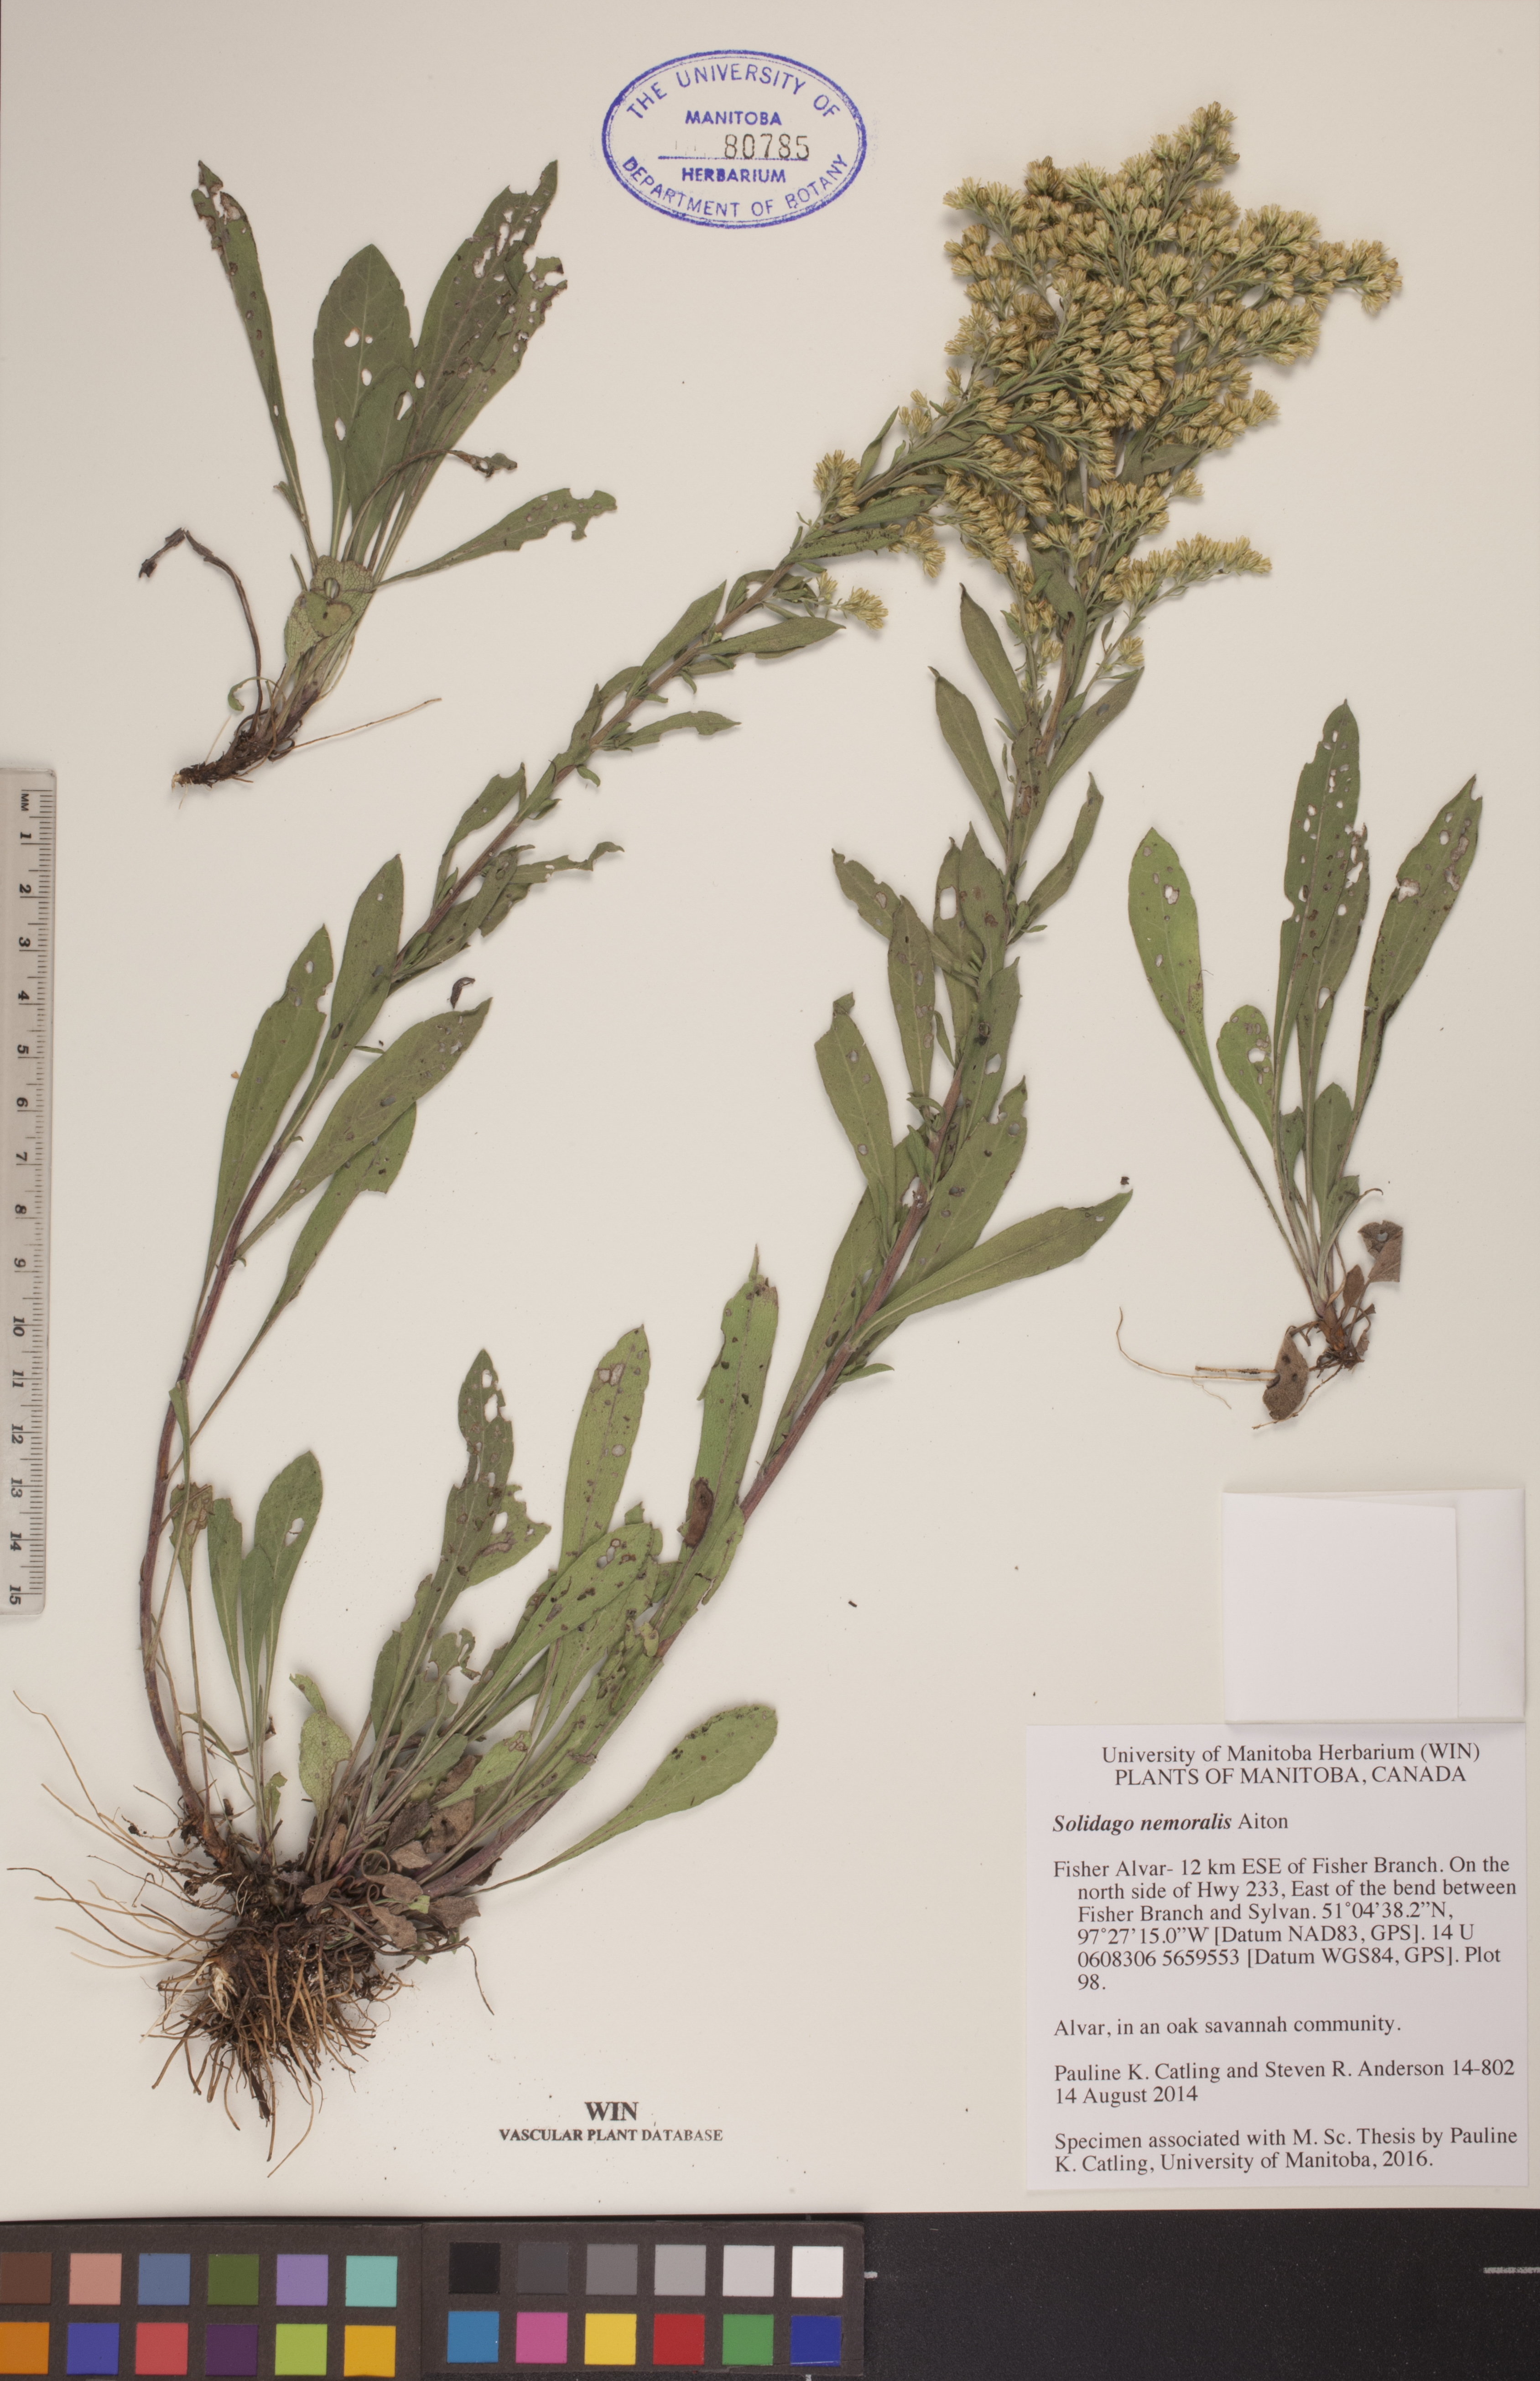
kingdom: Plantae
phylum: Tracheophyta
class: Magnoliopsida
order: Asterales
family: Asteraceae
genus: Solidago
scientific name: Solidago nemoralis
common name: Grey goldenrod
